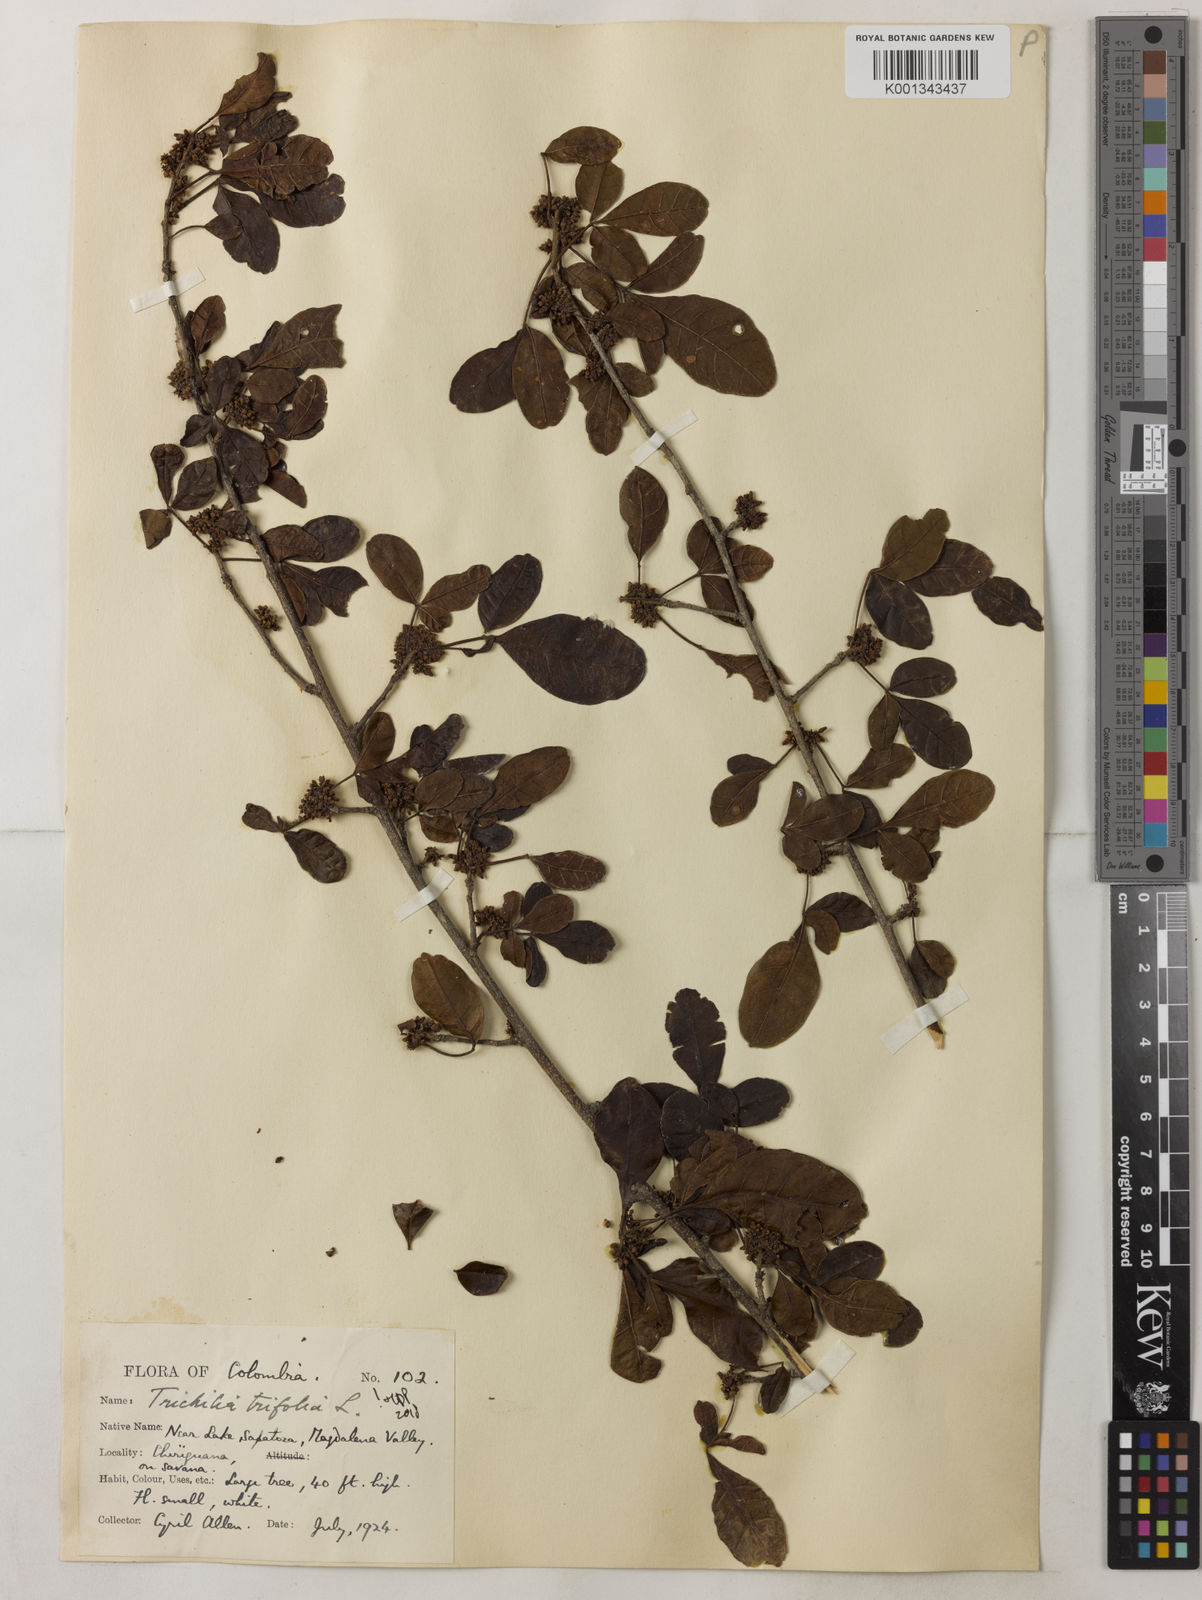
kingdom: Plantae
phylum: Tracheophyta
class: Magnoliopsida
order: Sapindales
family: Meliaceae
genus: Trichilia
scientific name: Trichilia trifolia
